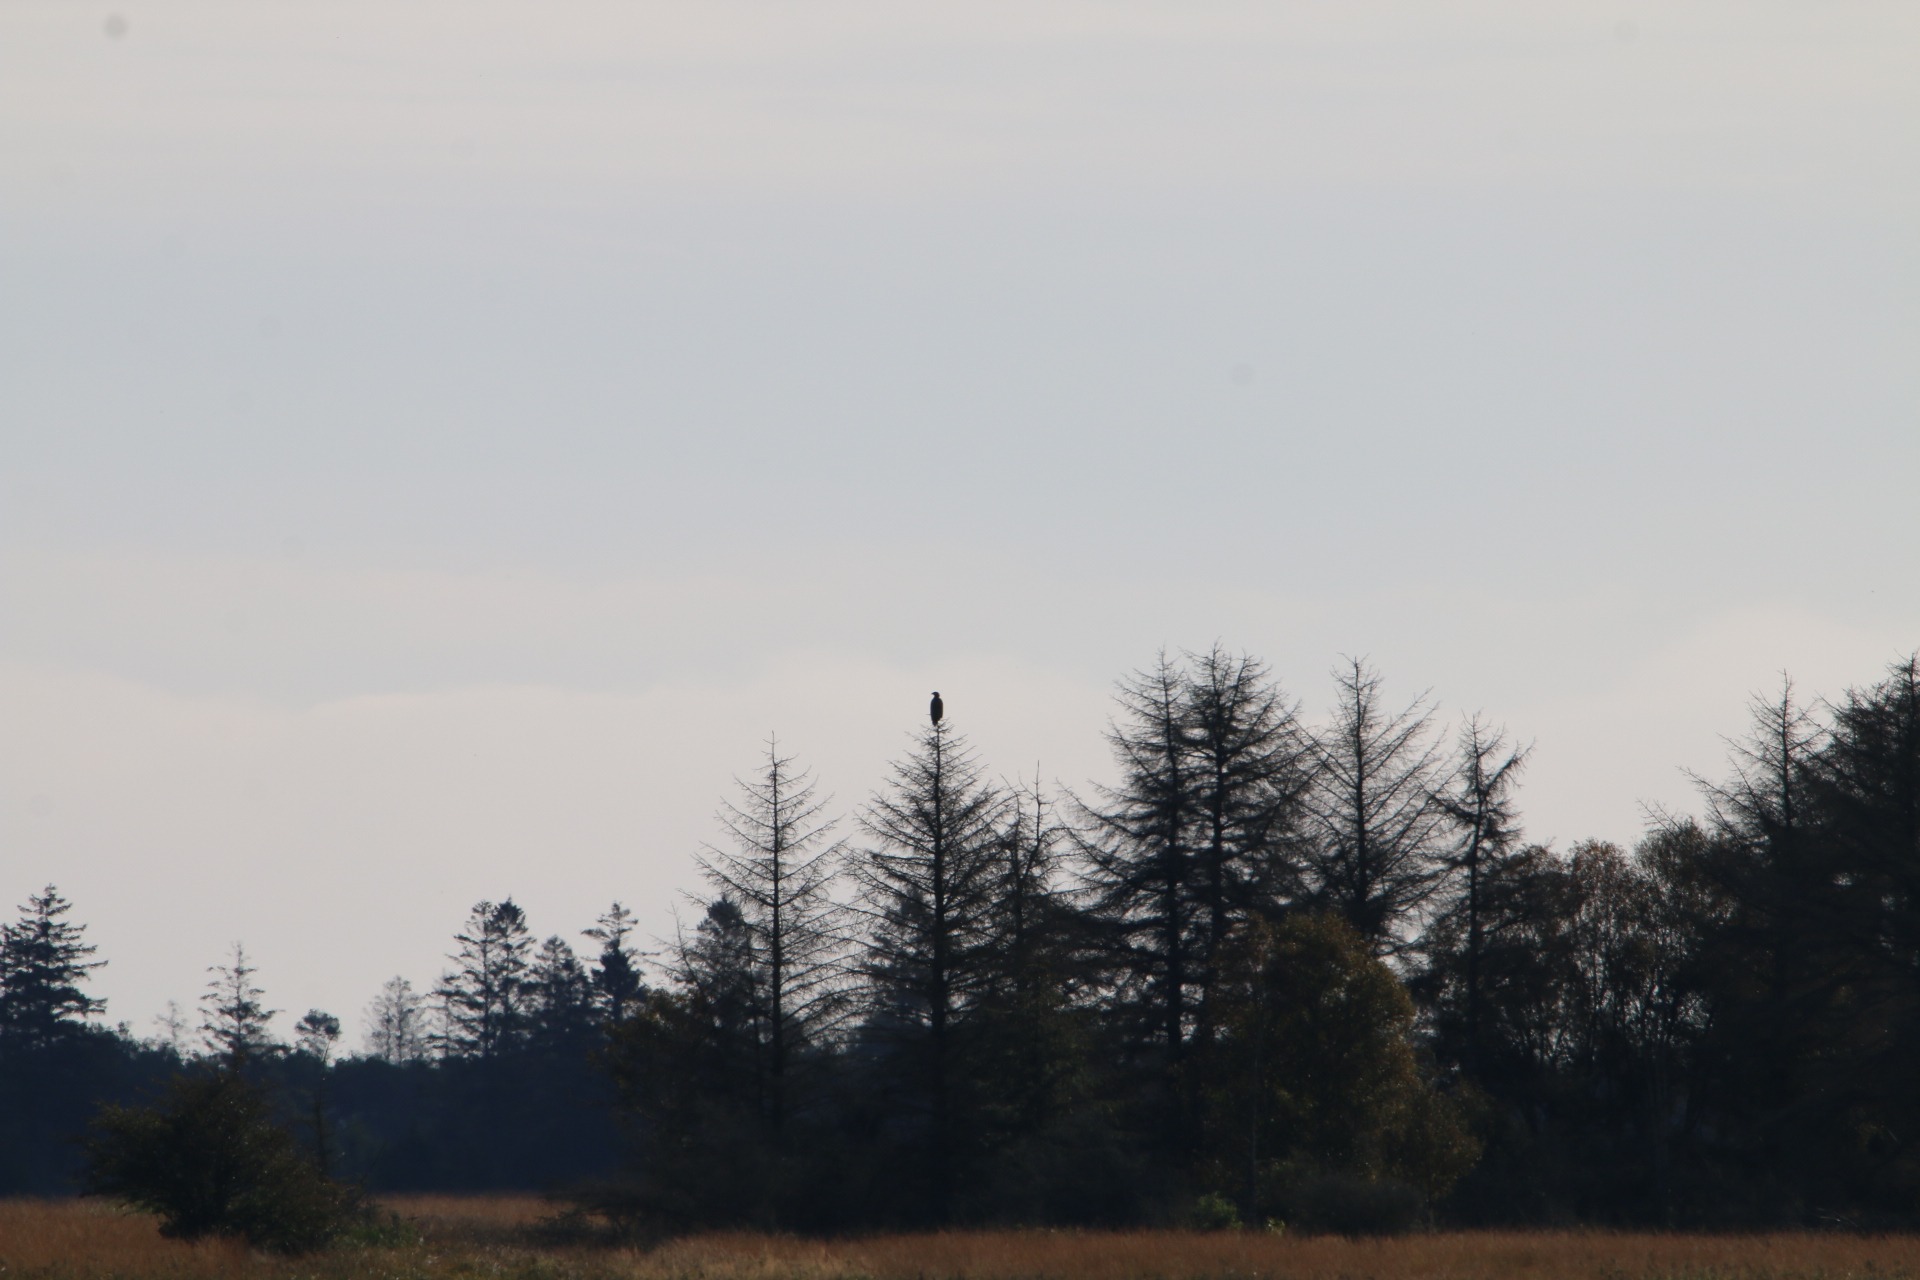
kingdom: Animalia
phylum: Chordata
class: Aves
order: Accipitriformes
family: Accipitridae
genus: Haliaeetus
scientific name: Haliaeetus albicilla
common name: Havørn
